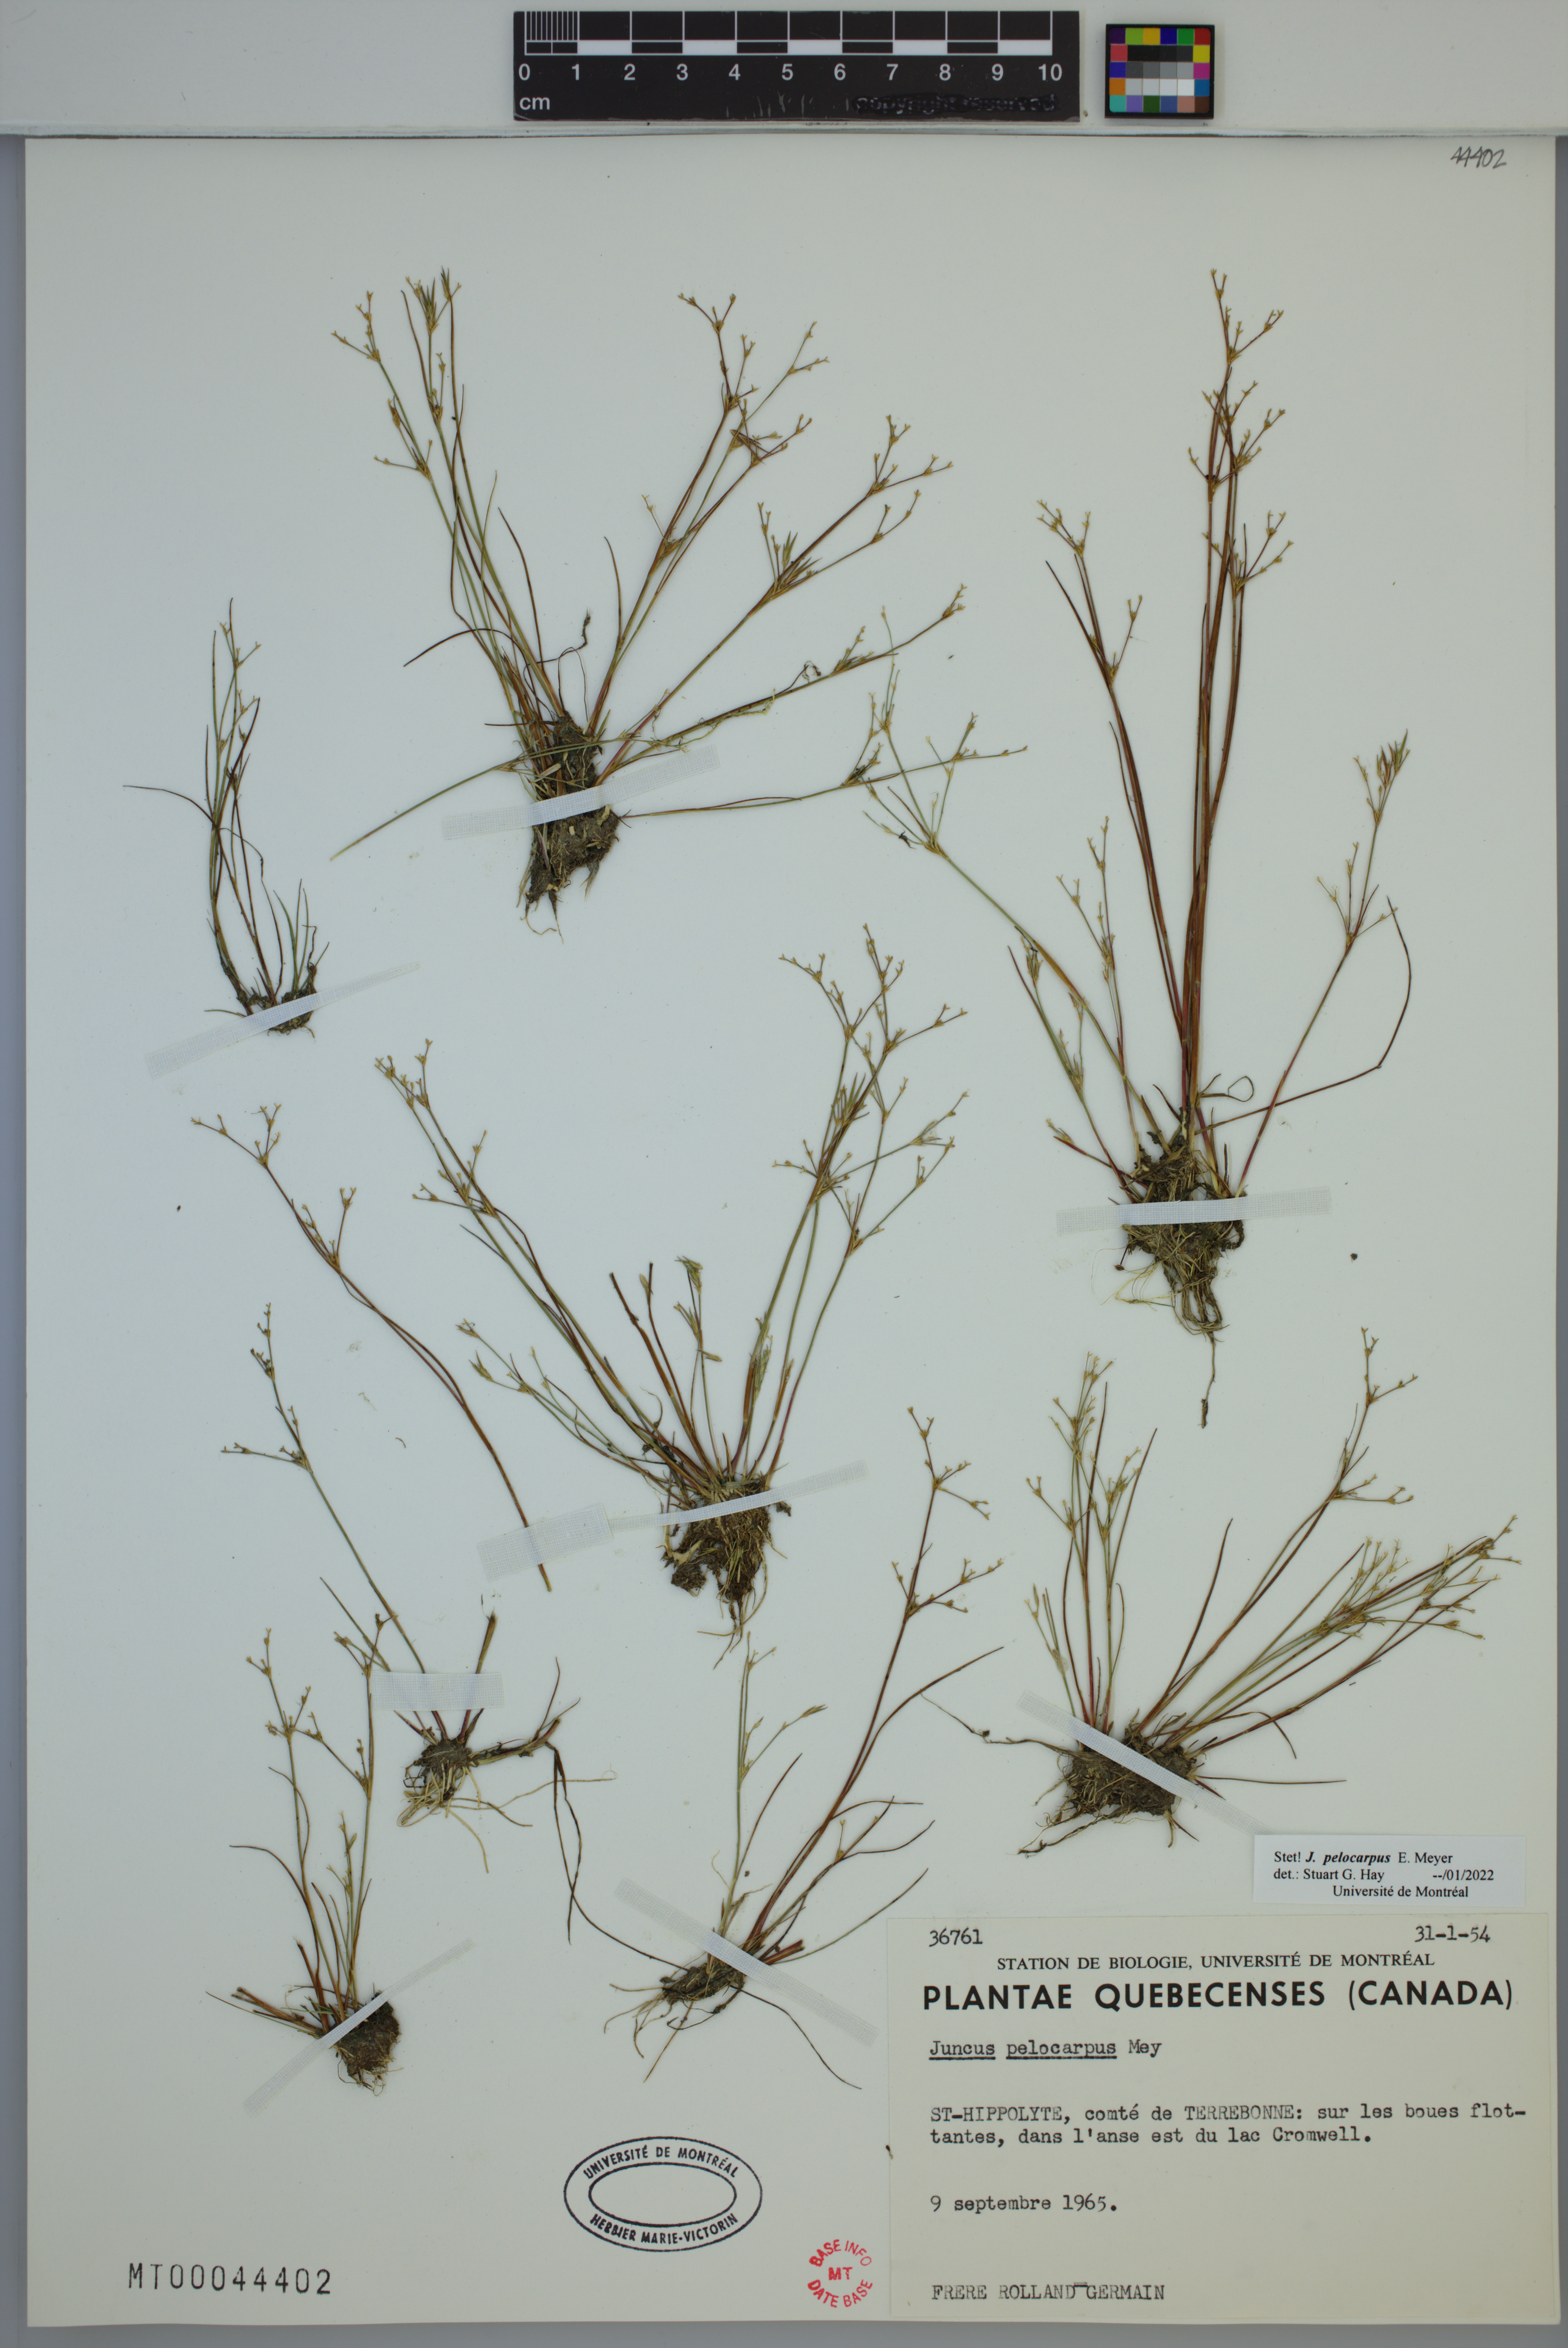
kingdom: Plantae
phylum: Tracheophyta
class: Liliopsida
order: Poales
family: Juncaceae
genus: Juncus
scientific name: Juncus pelocarpus
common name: Brown-fruited rush
